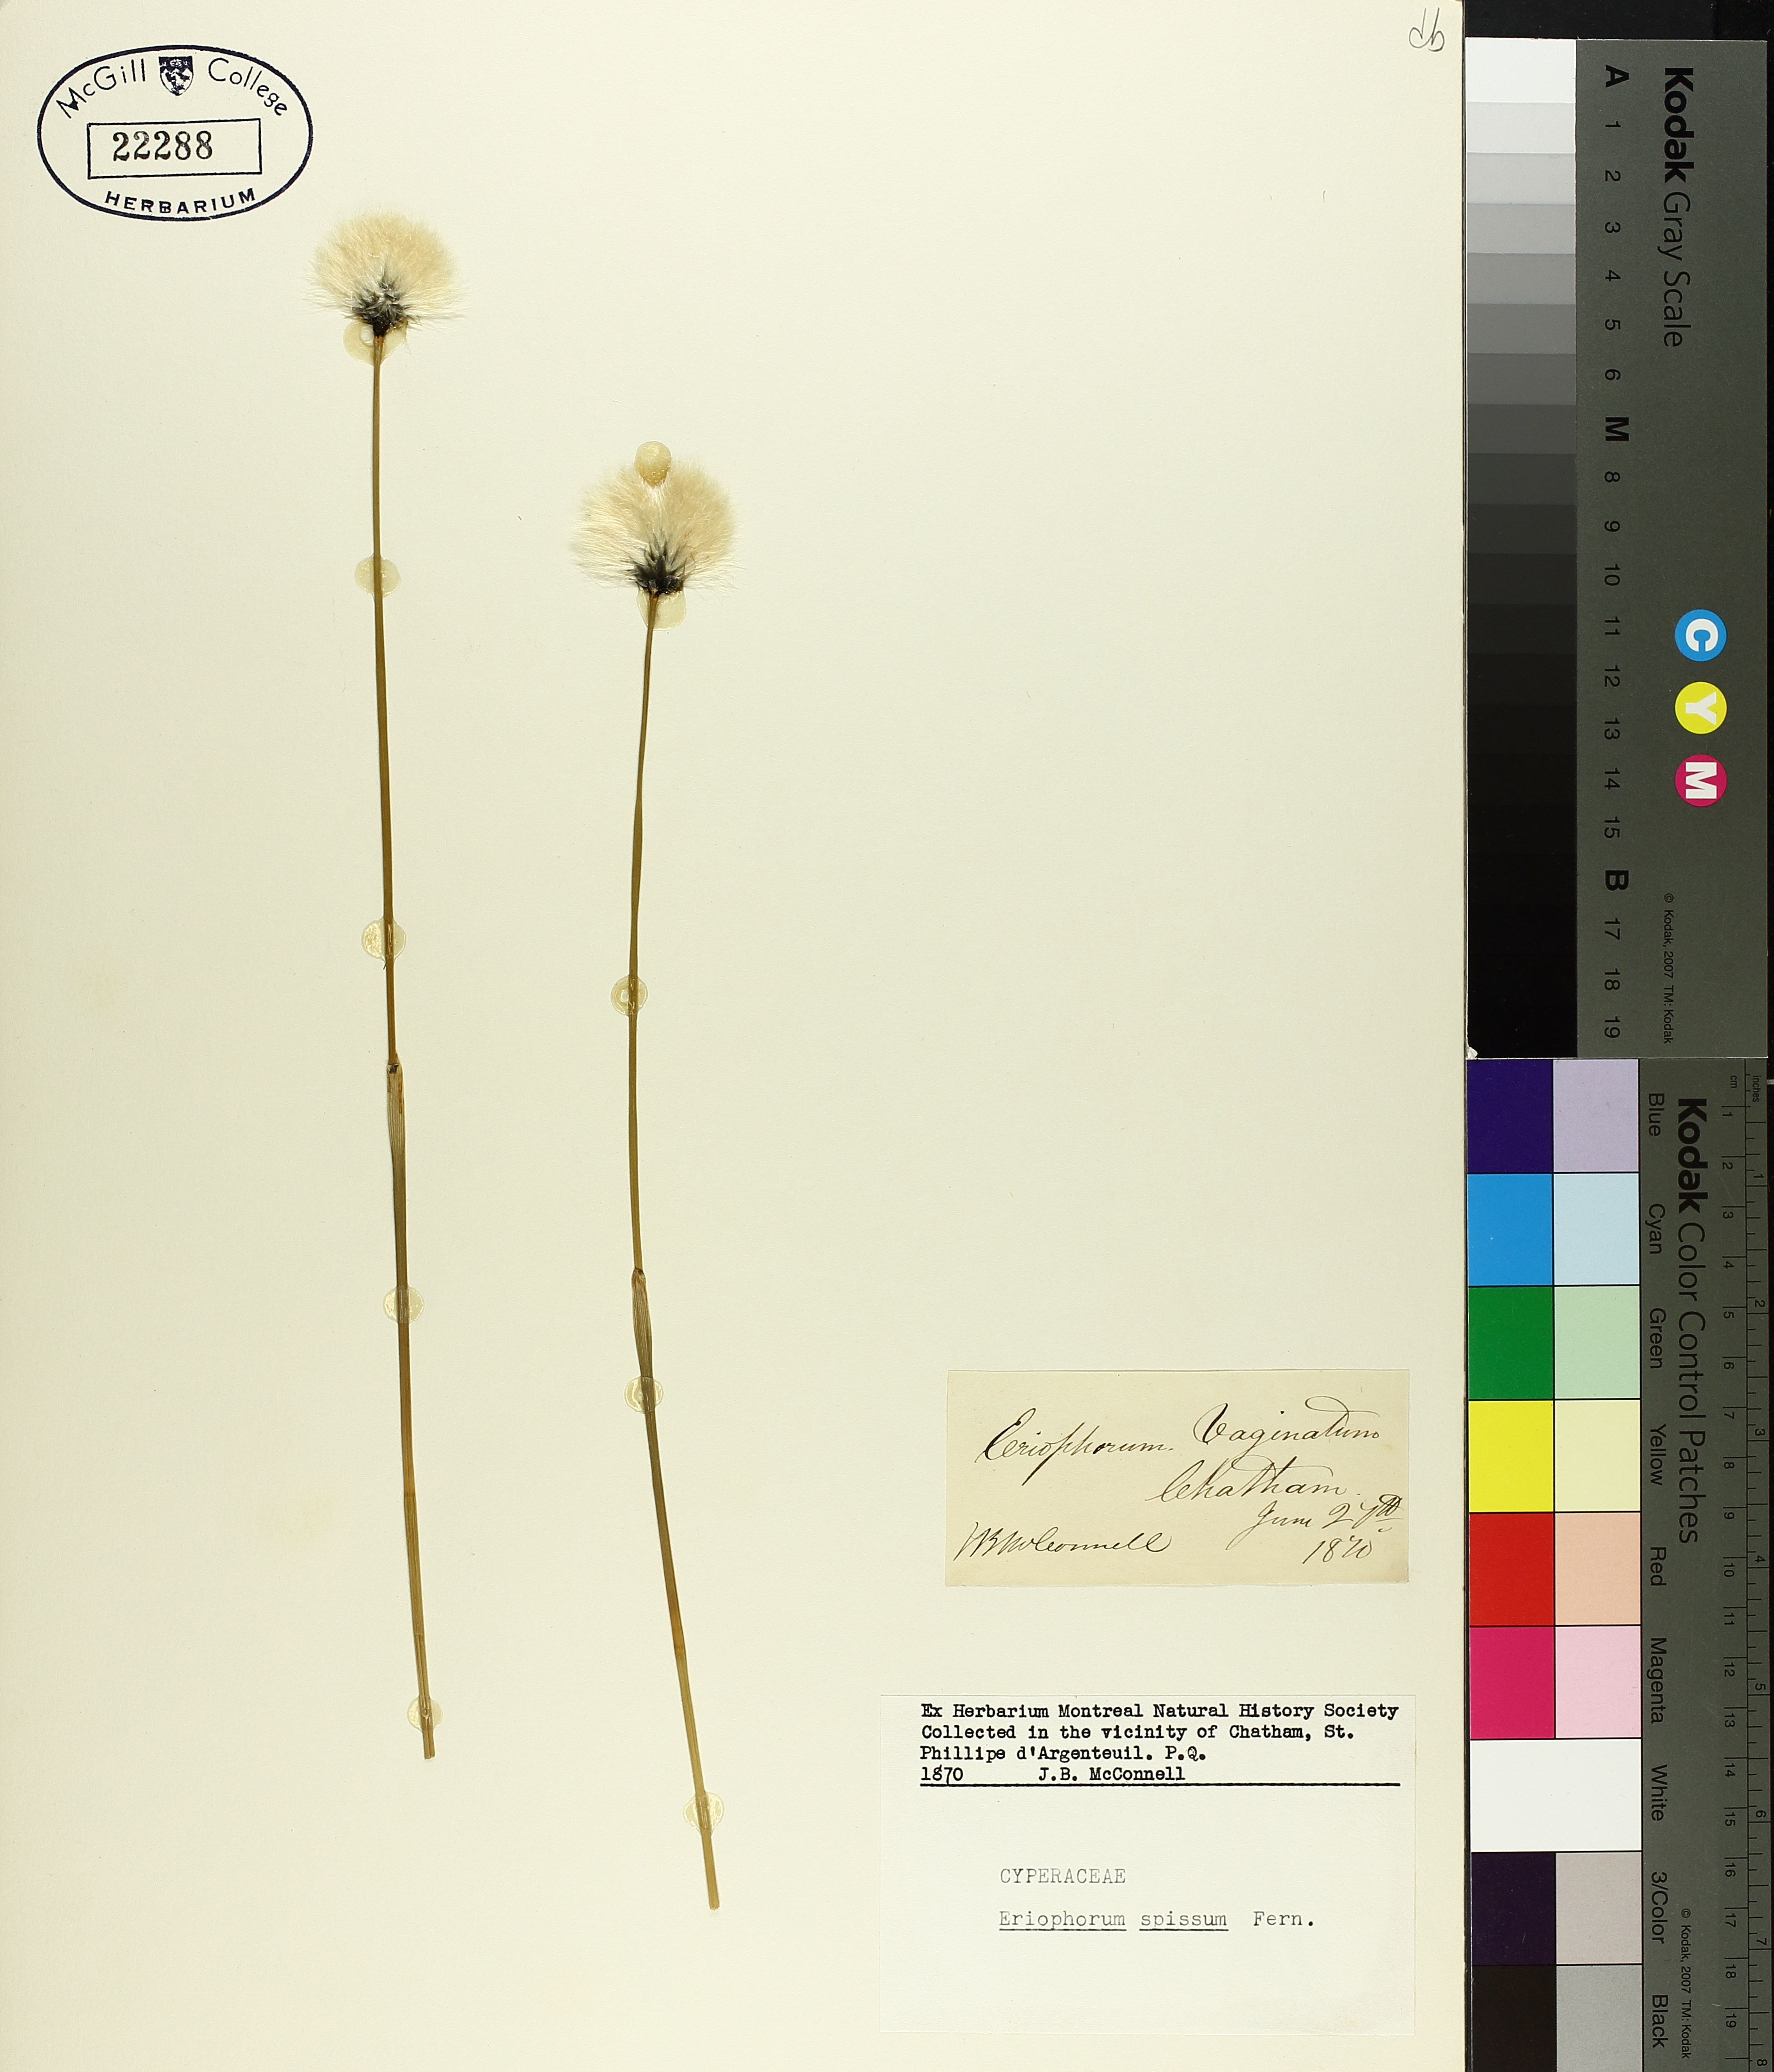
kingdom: Plantae
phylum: Tracheophyta
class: Liliopsida
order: Poales
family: Cyperaceae
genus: Eriophorum
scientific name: Eriophorum vaginatum
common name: Hare's-tail cottongrass
